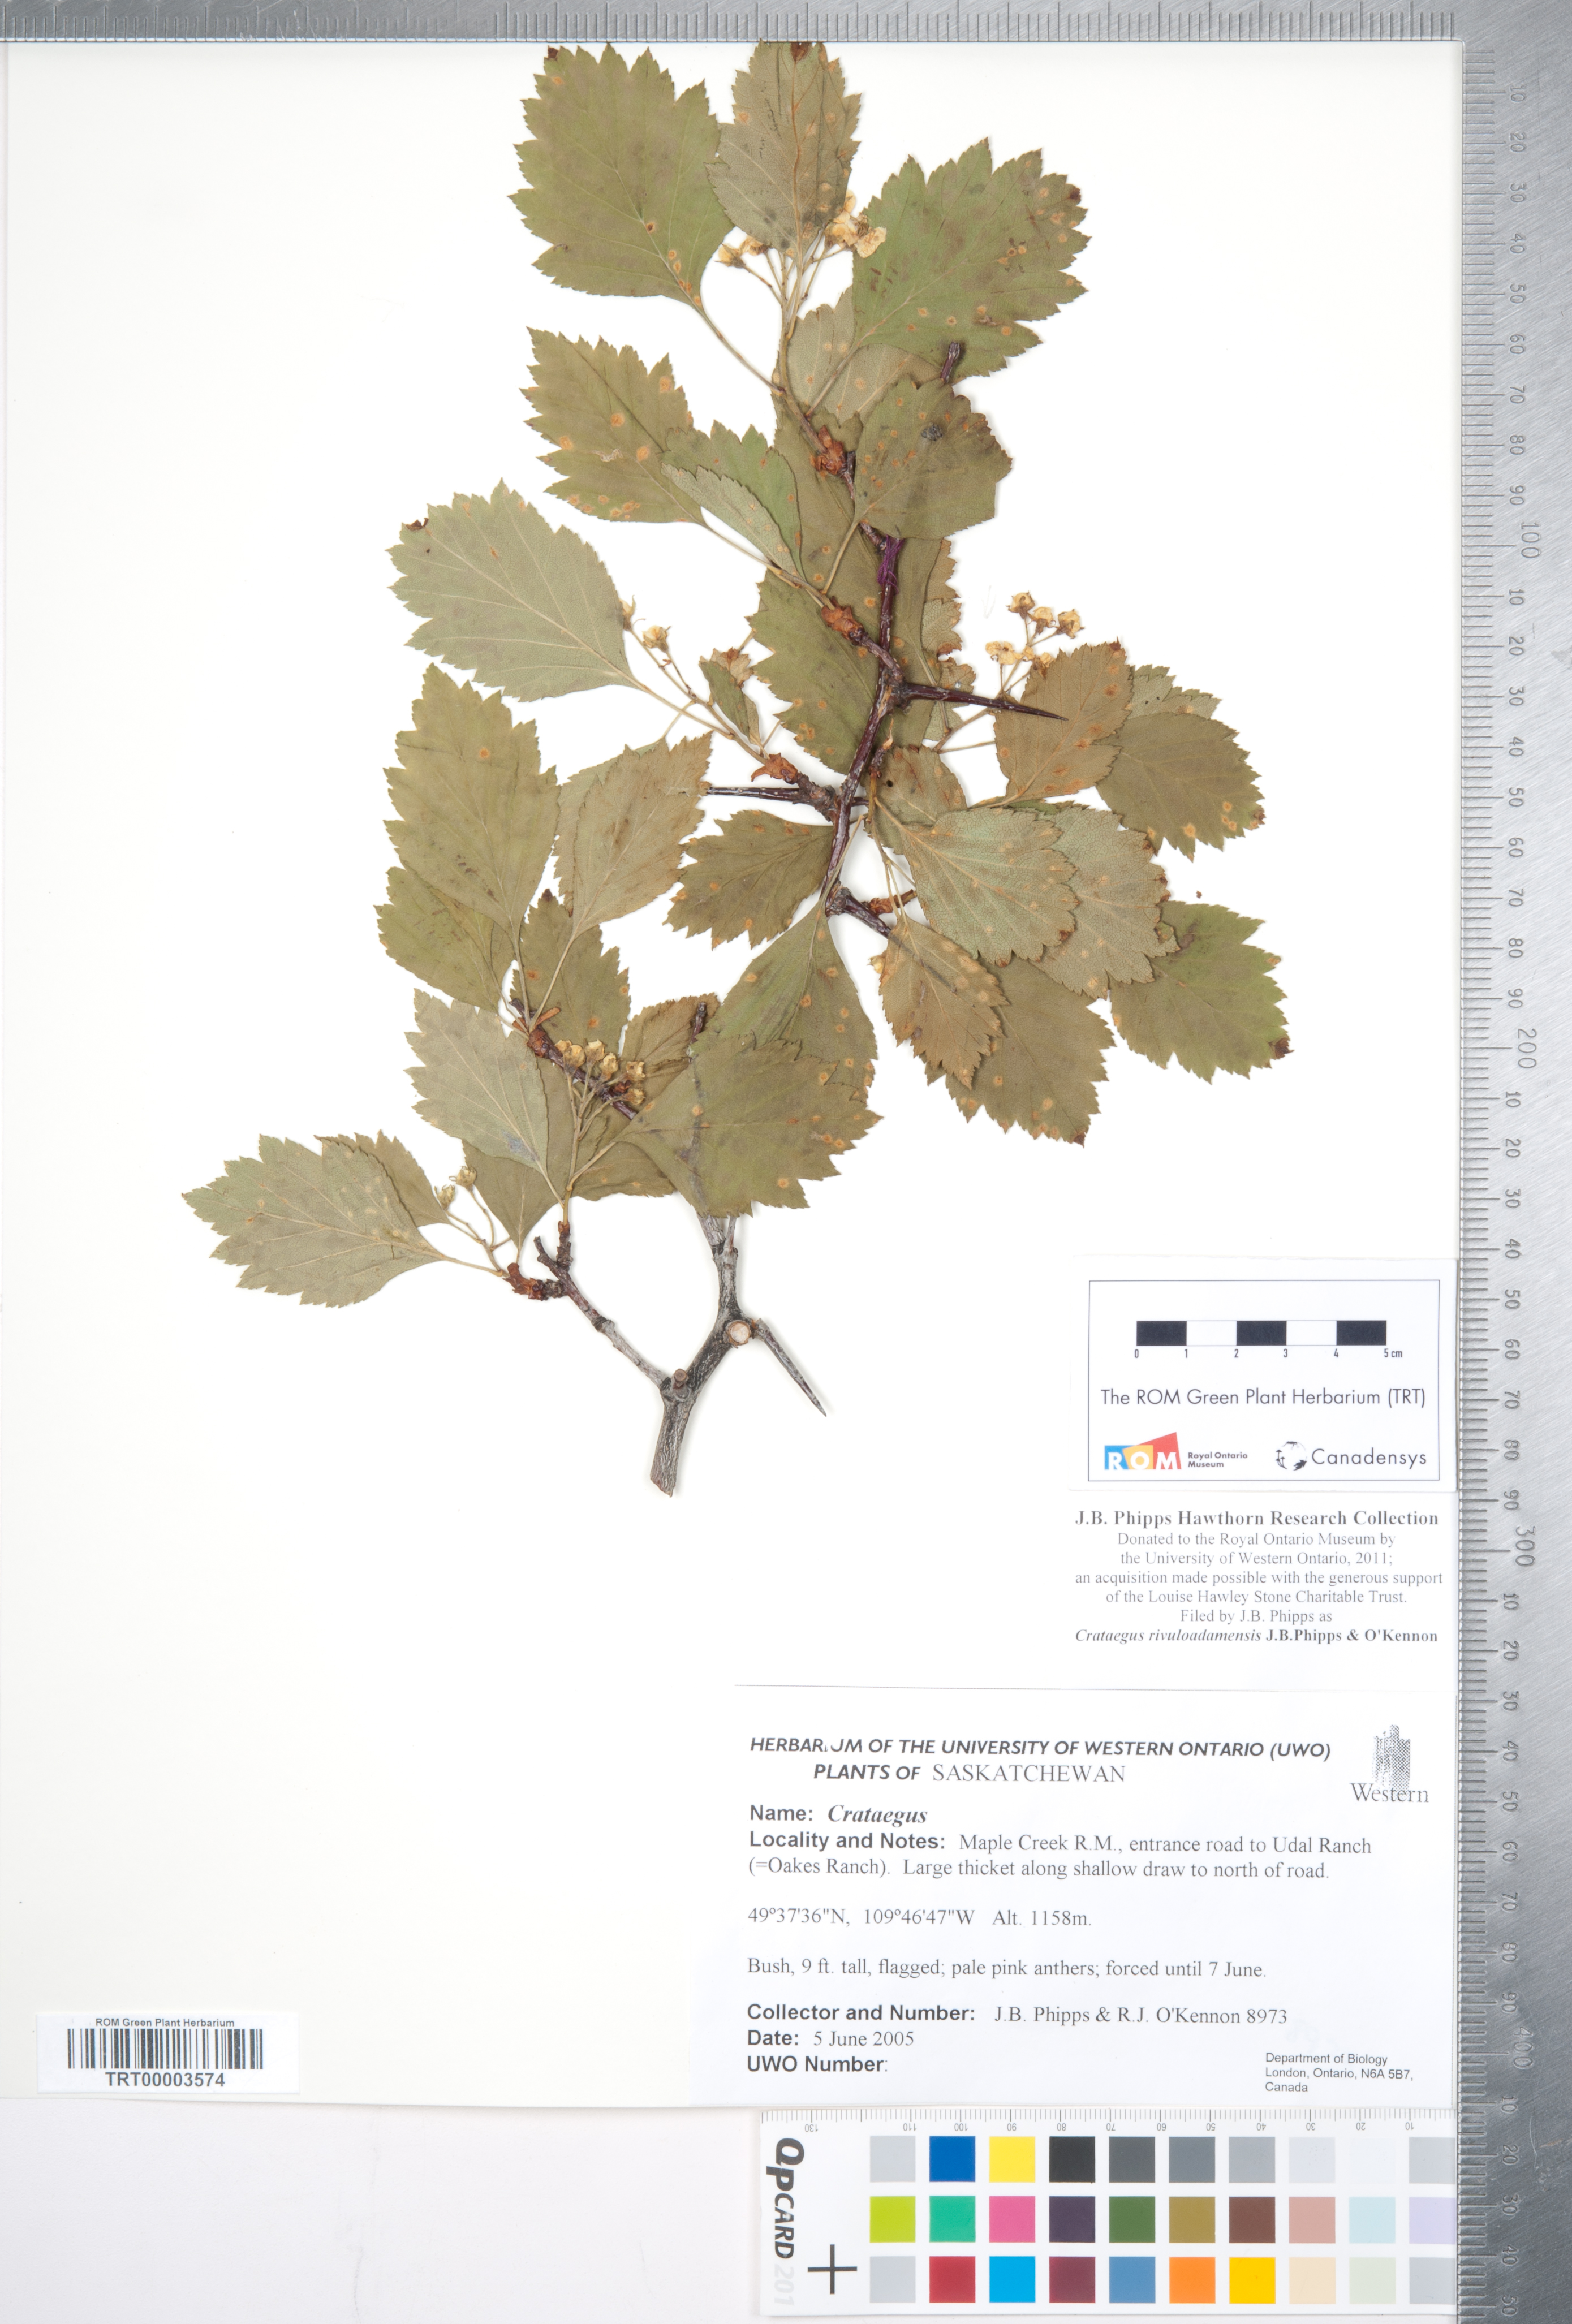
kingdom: Plantae
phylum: Tracheophyta
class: Magnoliopsida
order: Rosales
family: Rosaceae
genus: Crataegus
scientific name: Crataegus rivuloadamensis
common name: Adams creek hawthorn
